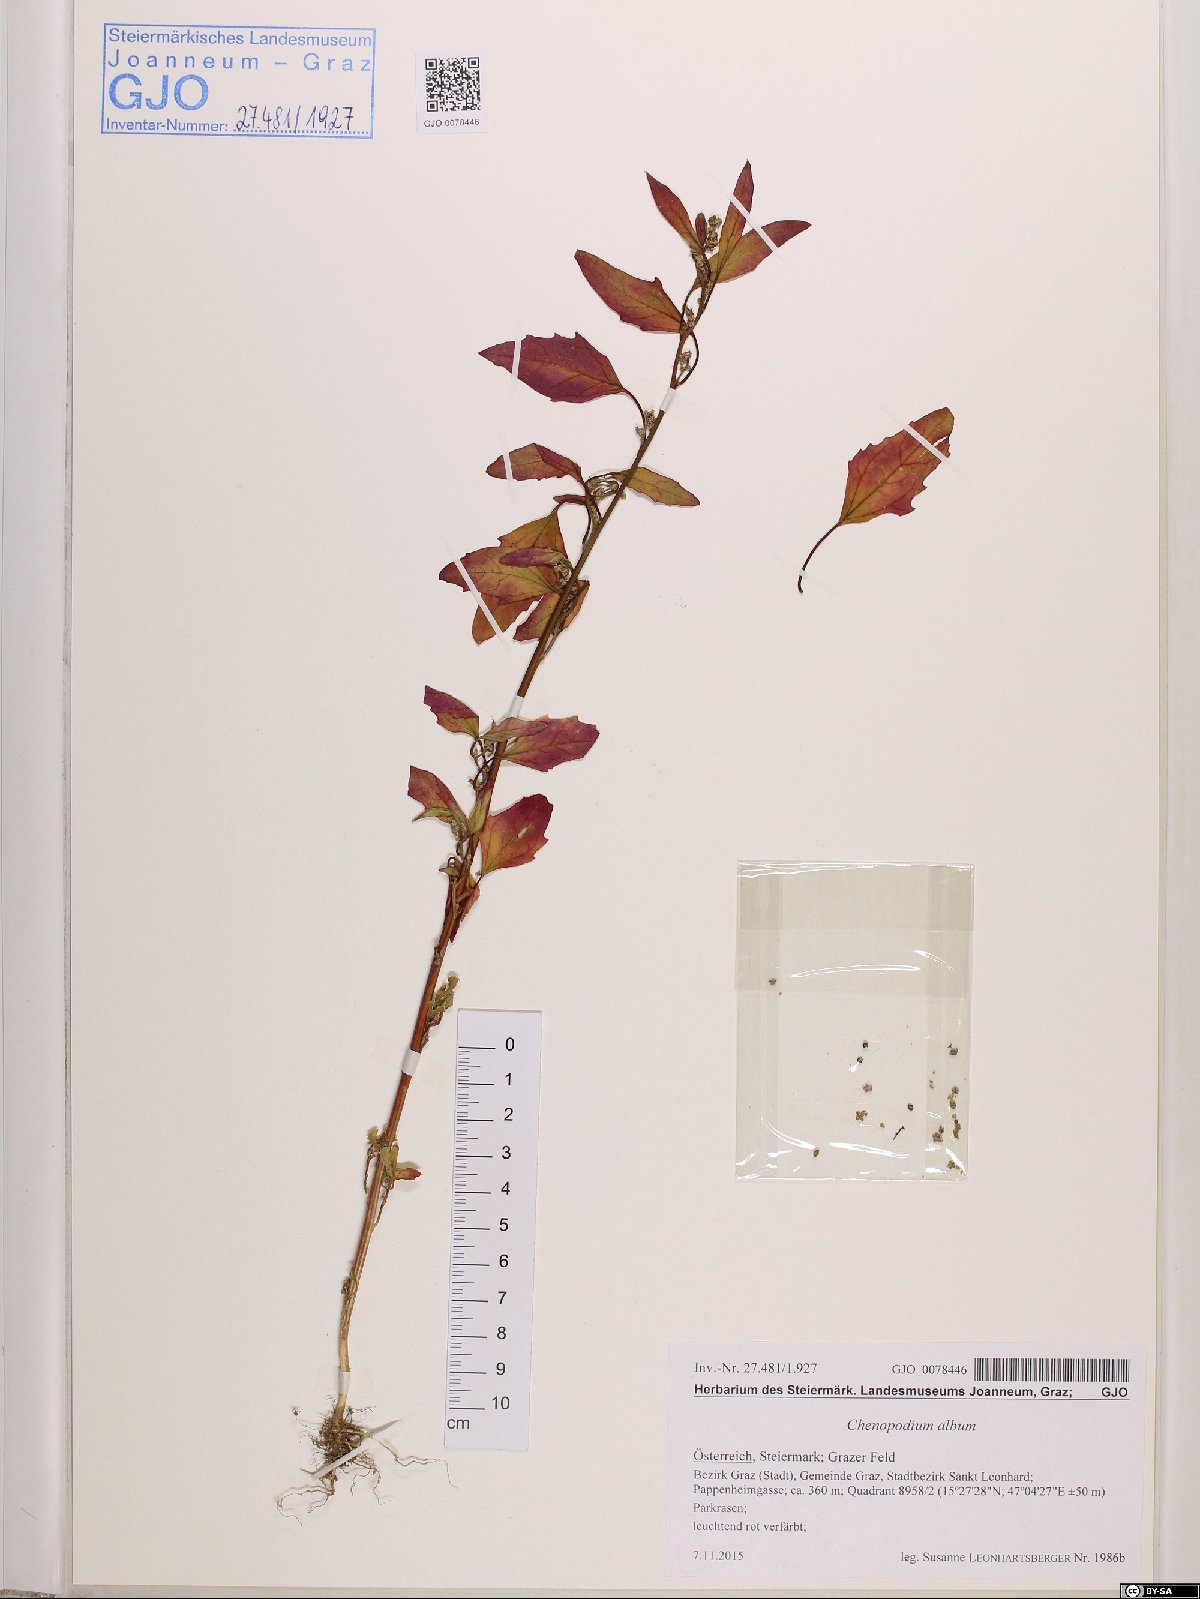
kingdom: Plantae
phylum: Tracheophyta
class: Magnoliopsida
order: Caryophyllales
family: Amaranthaceae
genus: Chenopodium
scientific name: Chenopodium album
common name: Fat-hen
